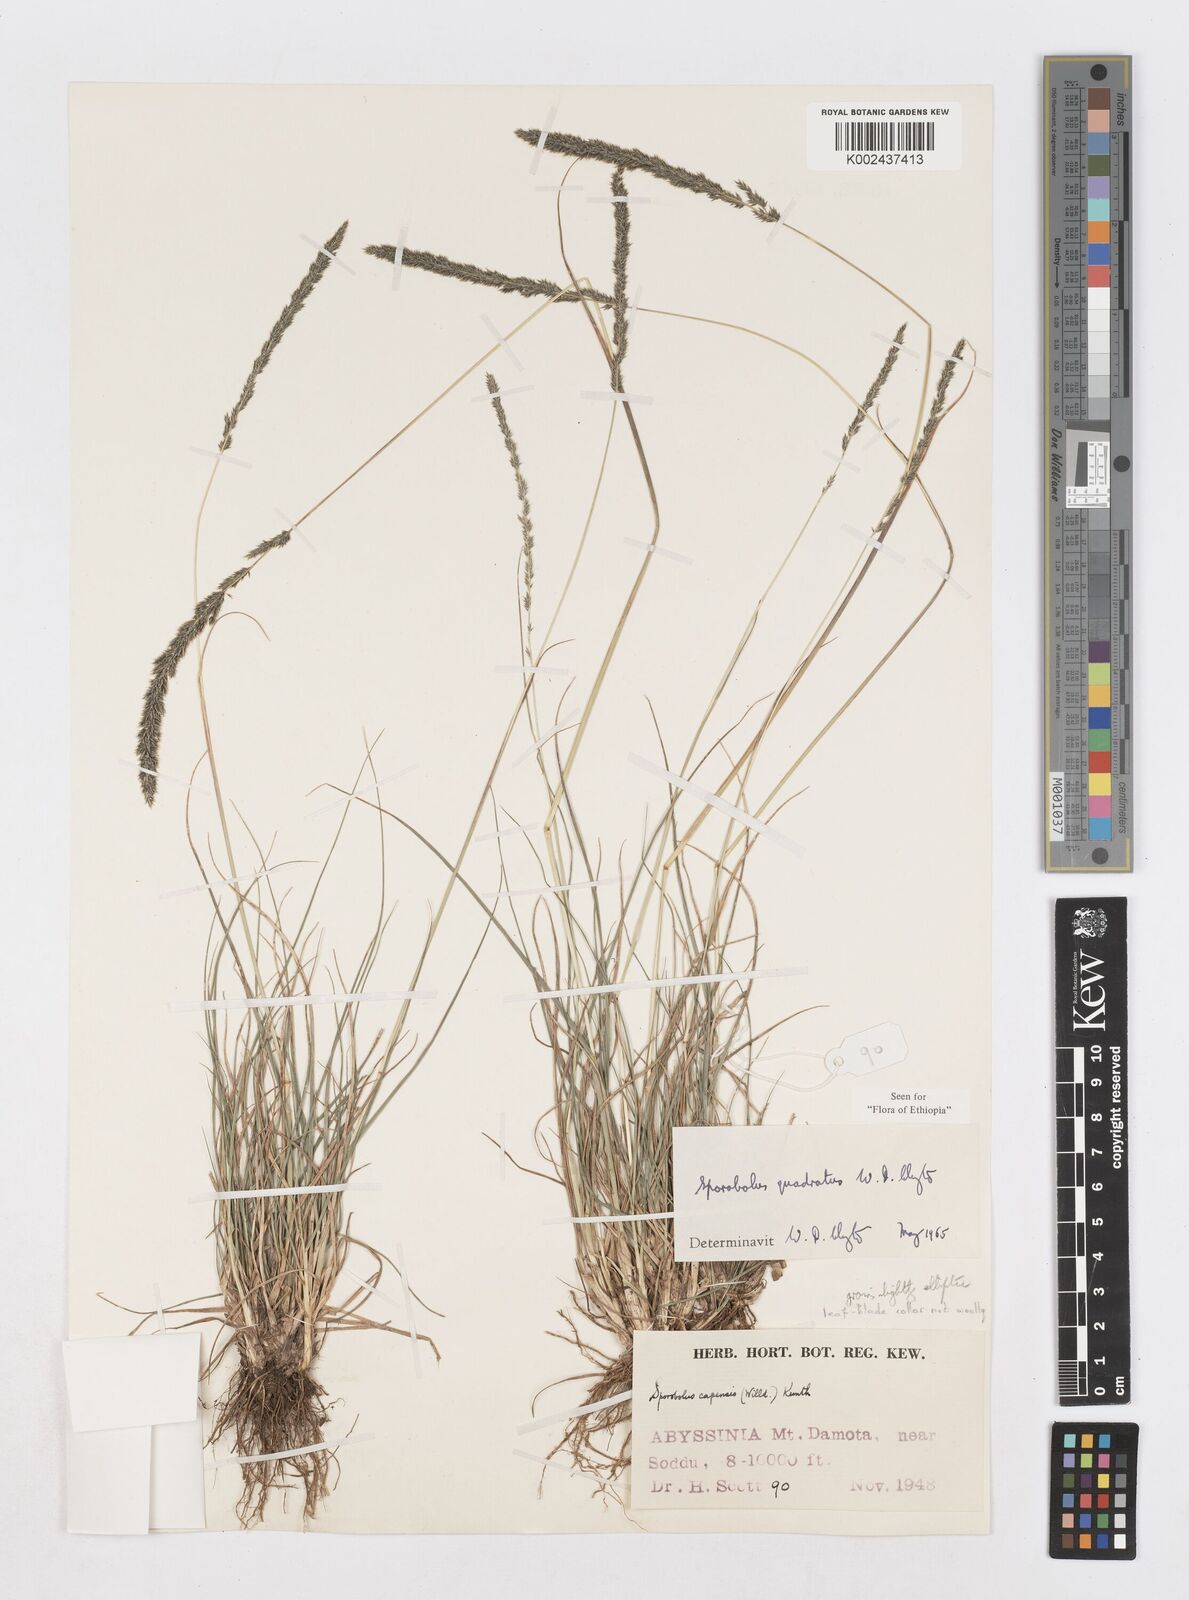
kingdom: Plantae
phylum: Tracheophyta
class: Liliopsida
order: Poales
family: Poaceae
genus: Sporobolus
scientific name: Sporobolus quadratus
